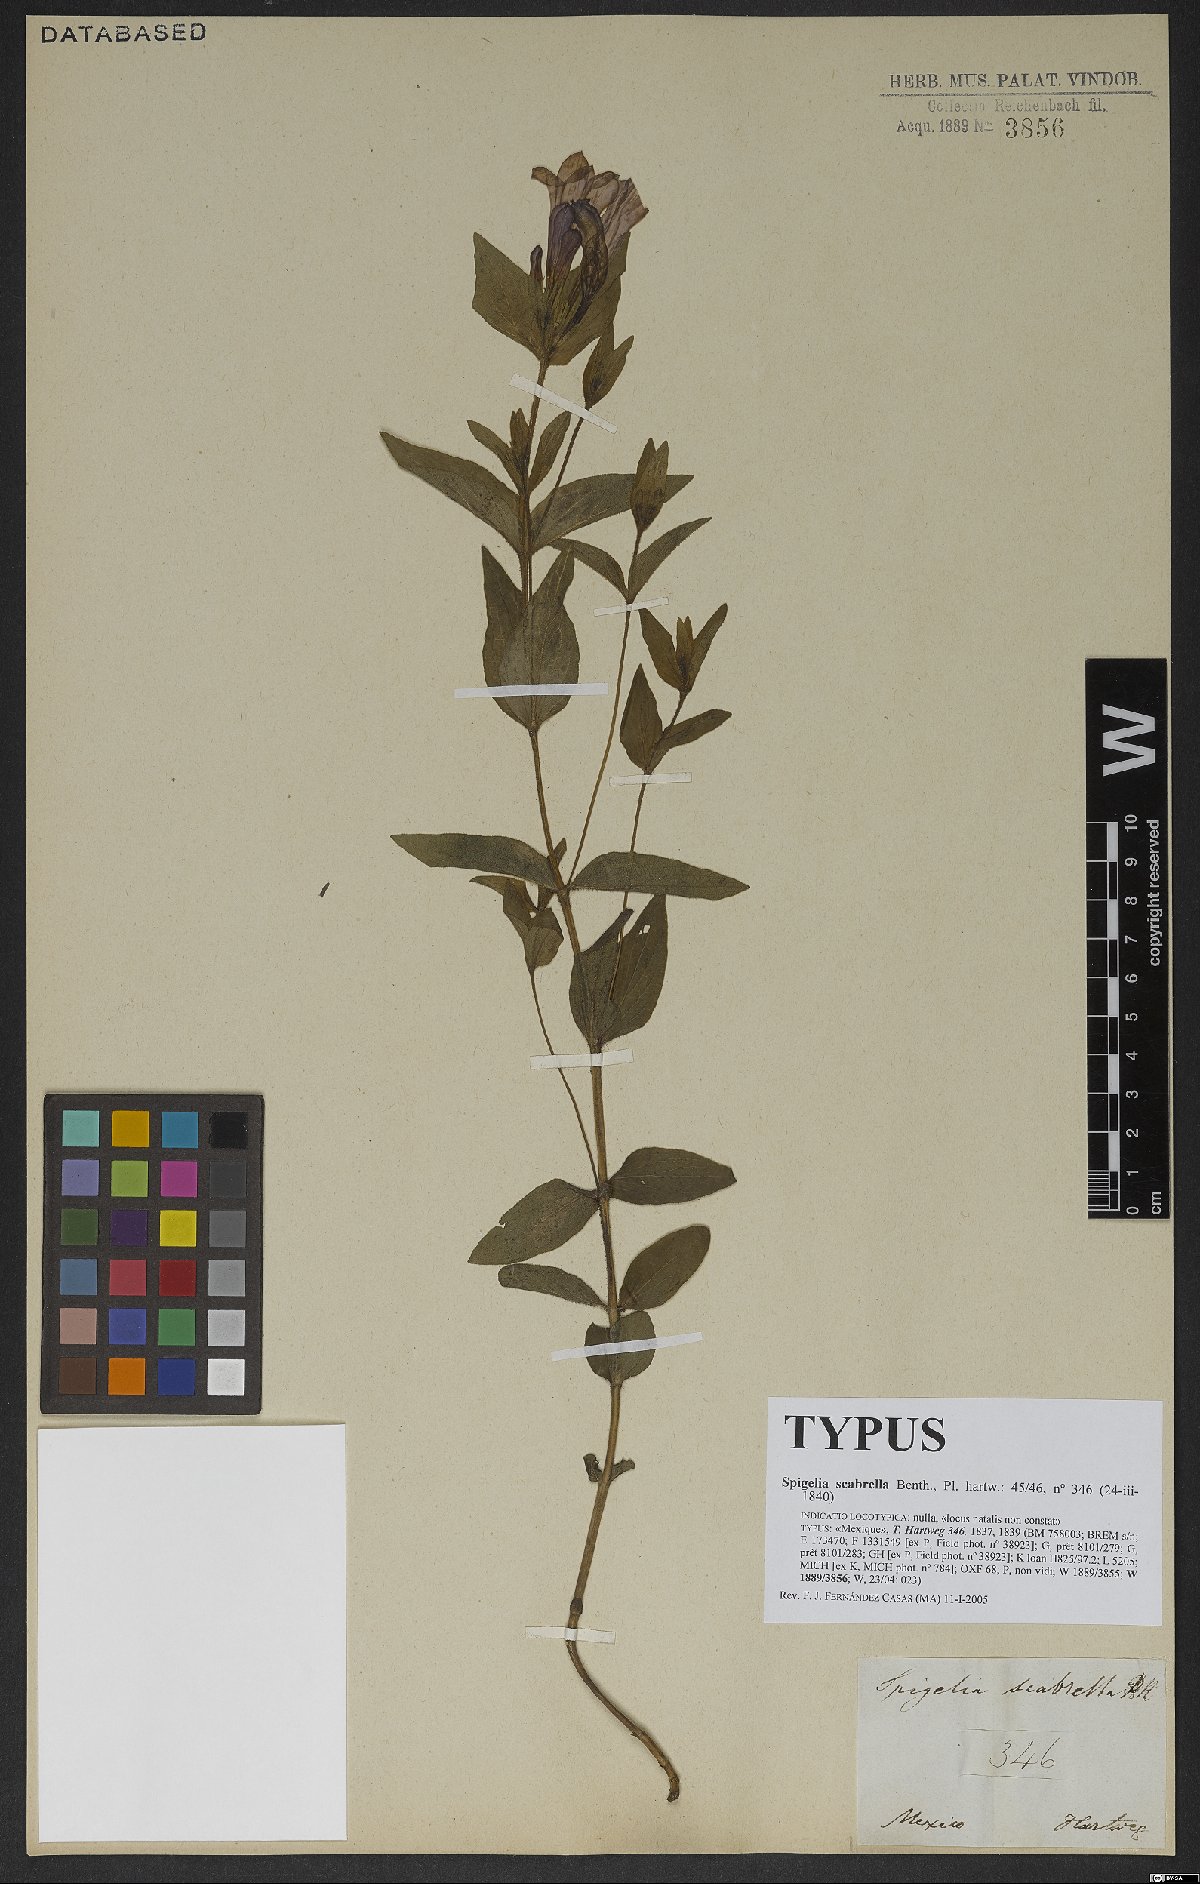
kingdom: Plantae
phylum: Tracheophyta
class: Magnoliopsida
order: Gentianales
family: Loganiaceae
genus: Spigelia
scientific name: Spigelia scabrella
